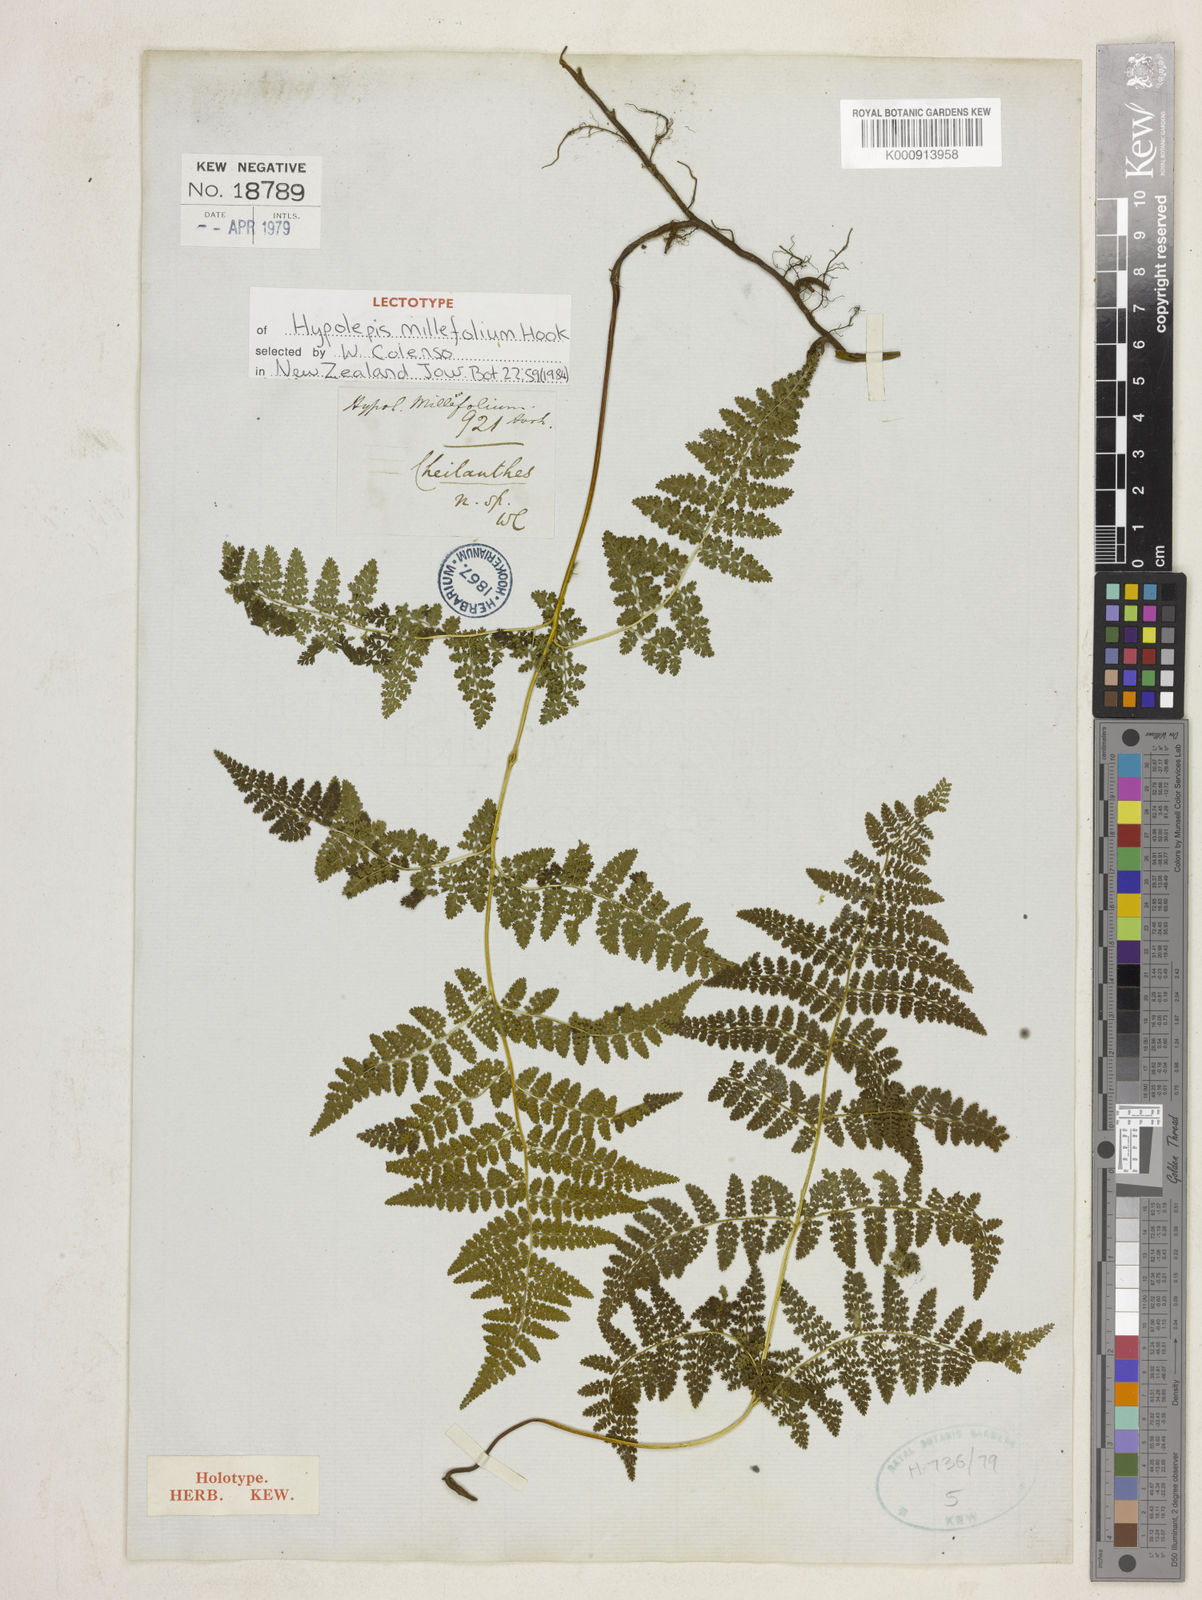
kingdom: Plantae
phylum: Tracheophyta
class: Polypodiopsida
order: Polypodiales
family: Dennstaedtiaceae
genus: Hypolepis
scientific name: Hypolepis millefolium
